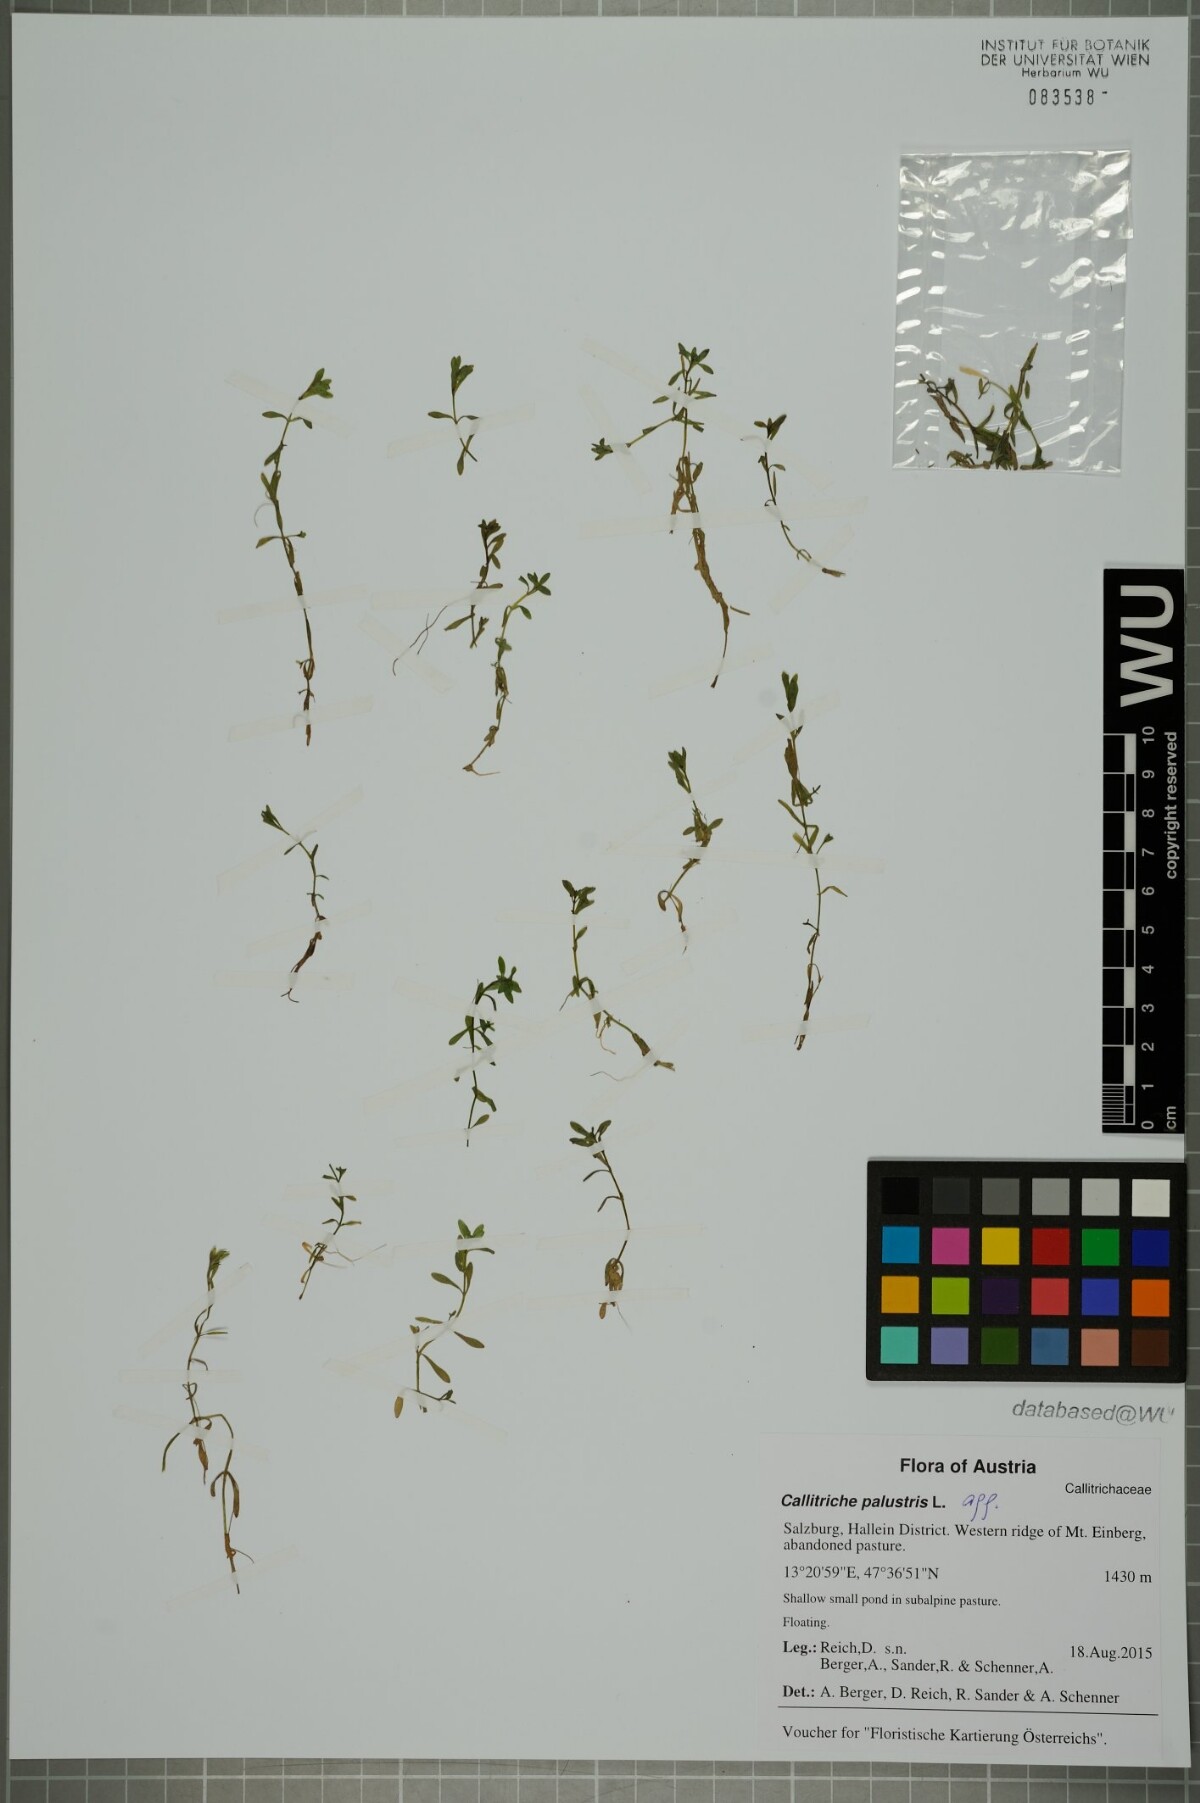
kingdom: Plantae
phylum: Tracheophyta
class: Magnoliopsida
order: Lamiales
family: Plantaginaceae
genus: Callitriche
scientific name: Callitriche palustris
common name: Spring water-starwort
